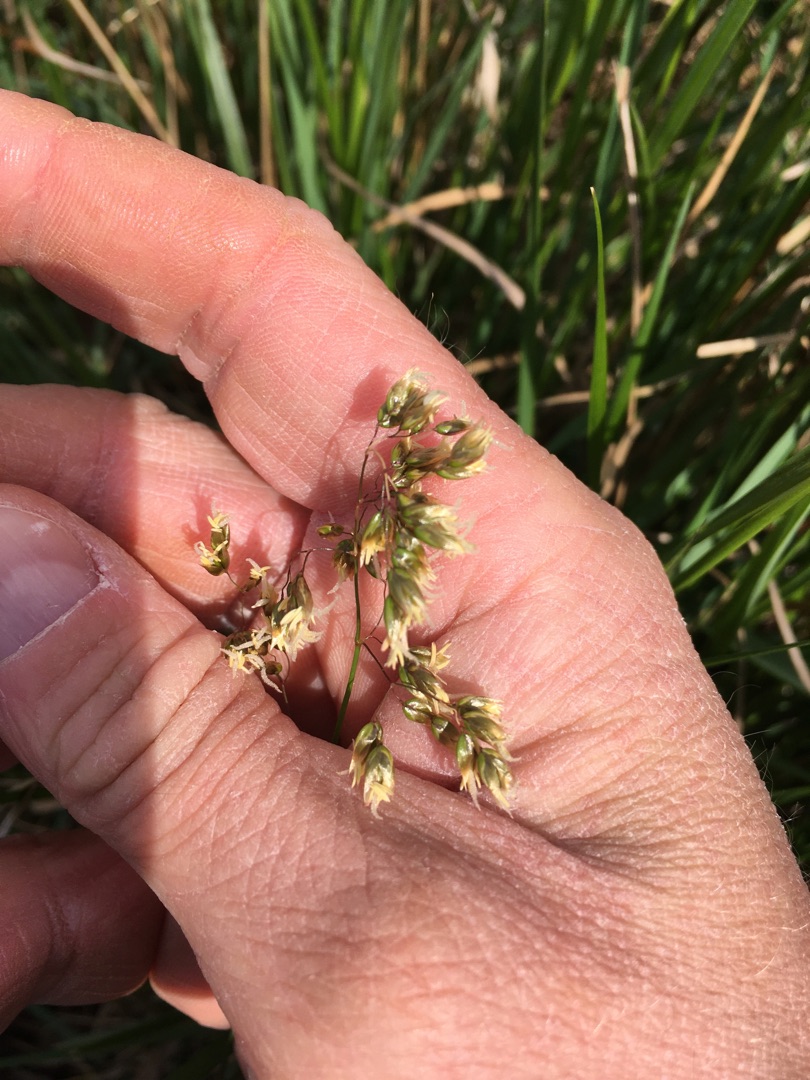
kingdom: Plantae
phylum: Tracheophyta
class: Liliopsida
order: Poales
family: Poaceae
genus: Anthoxanthum
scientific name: Anthoxanthum nitens
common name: Festgræs
